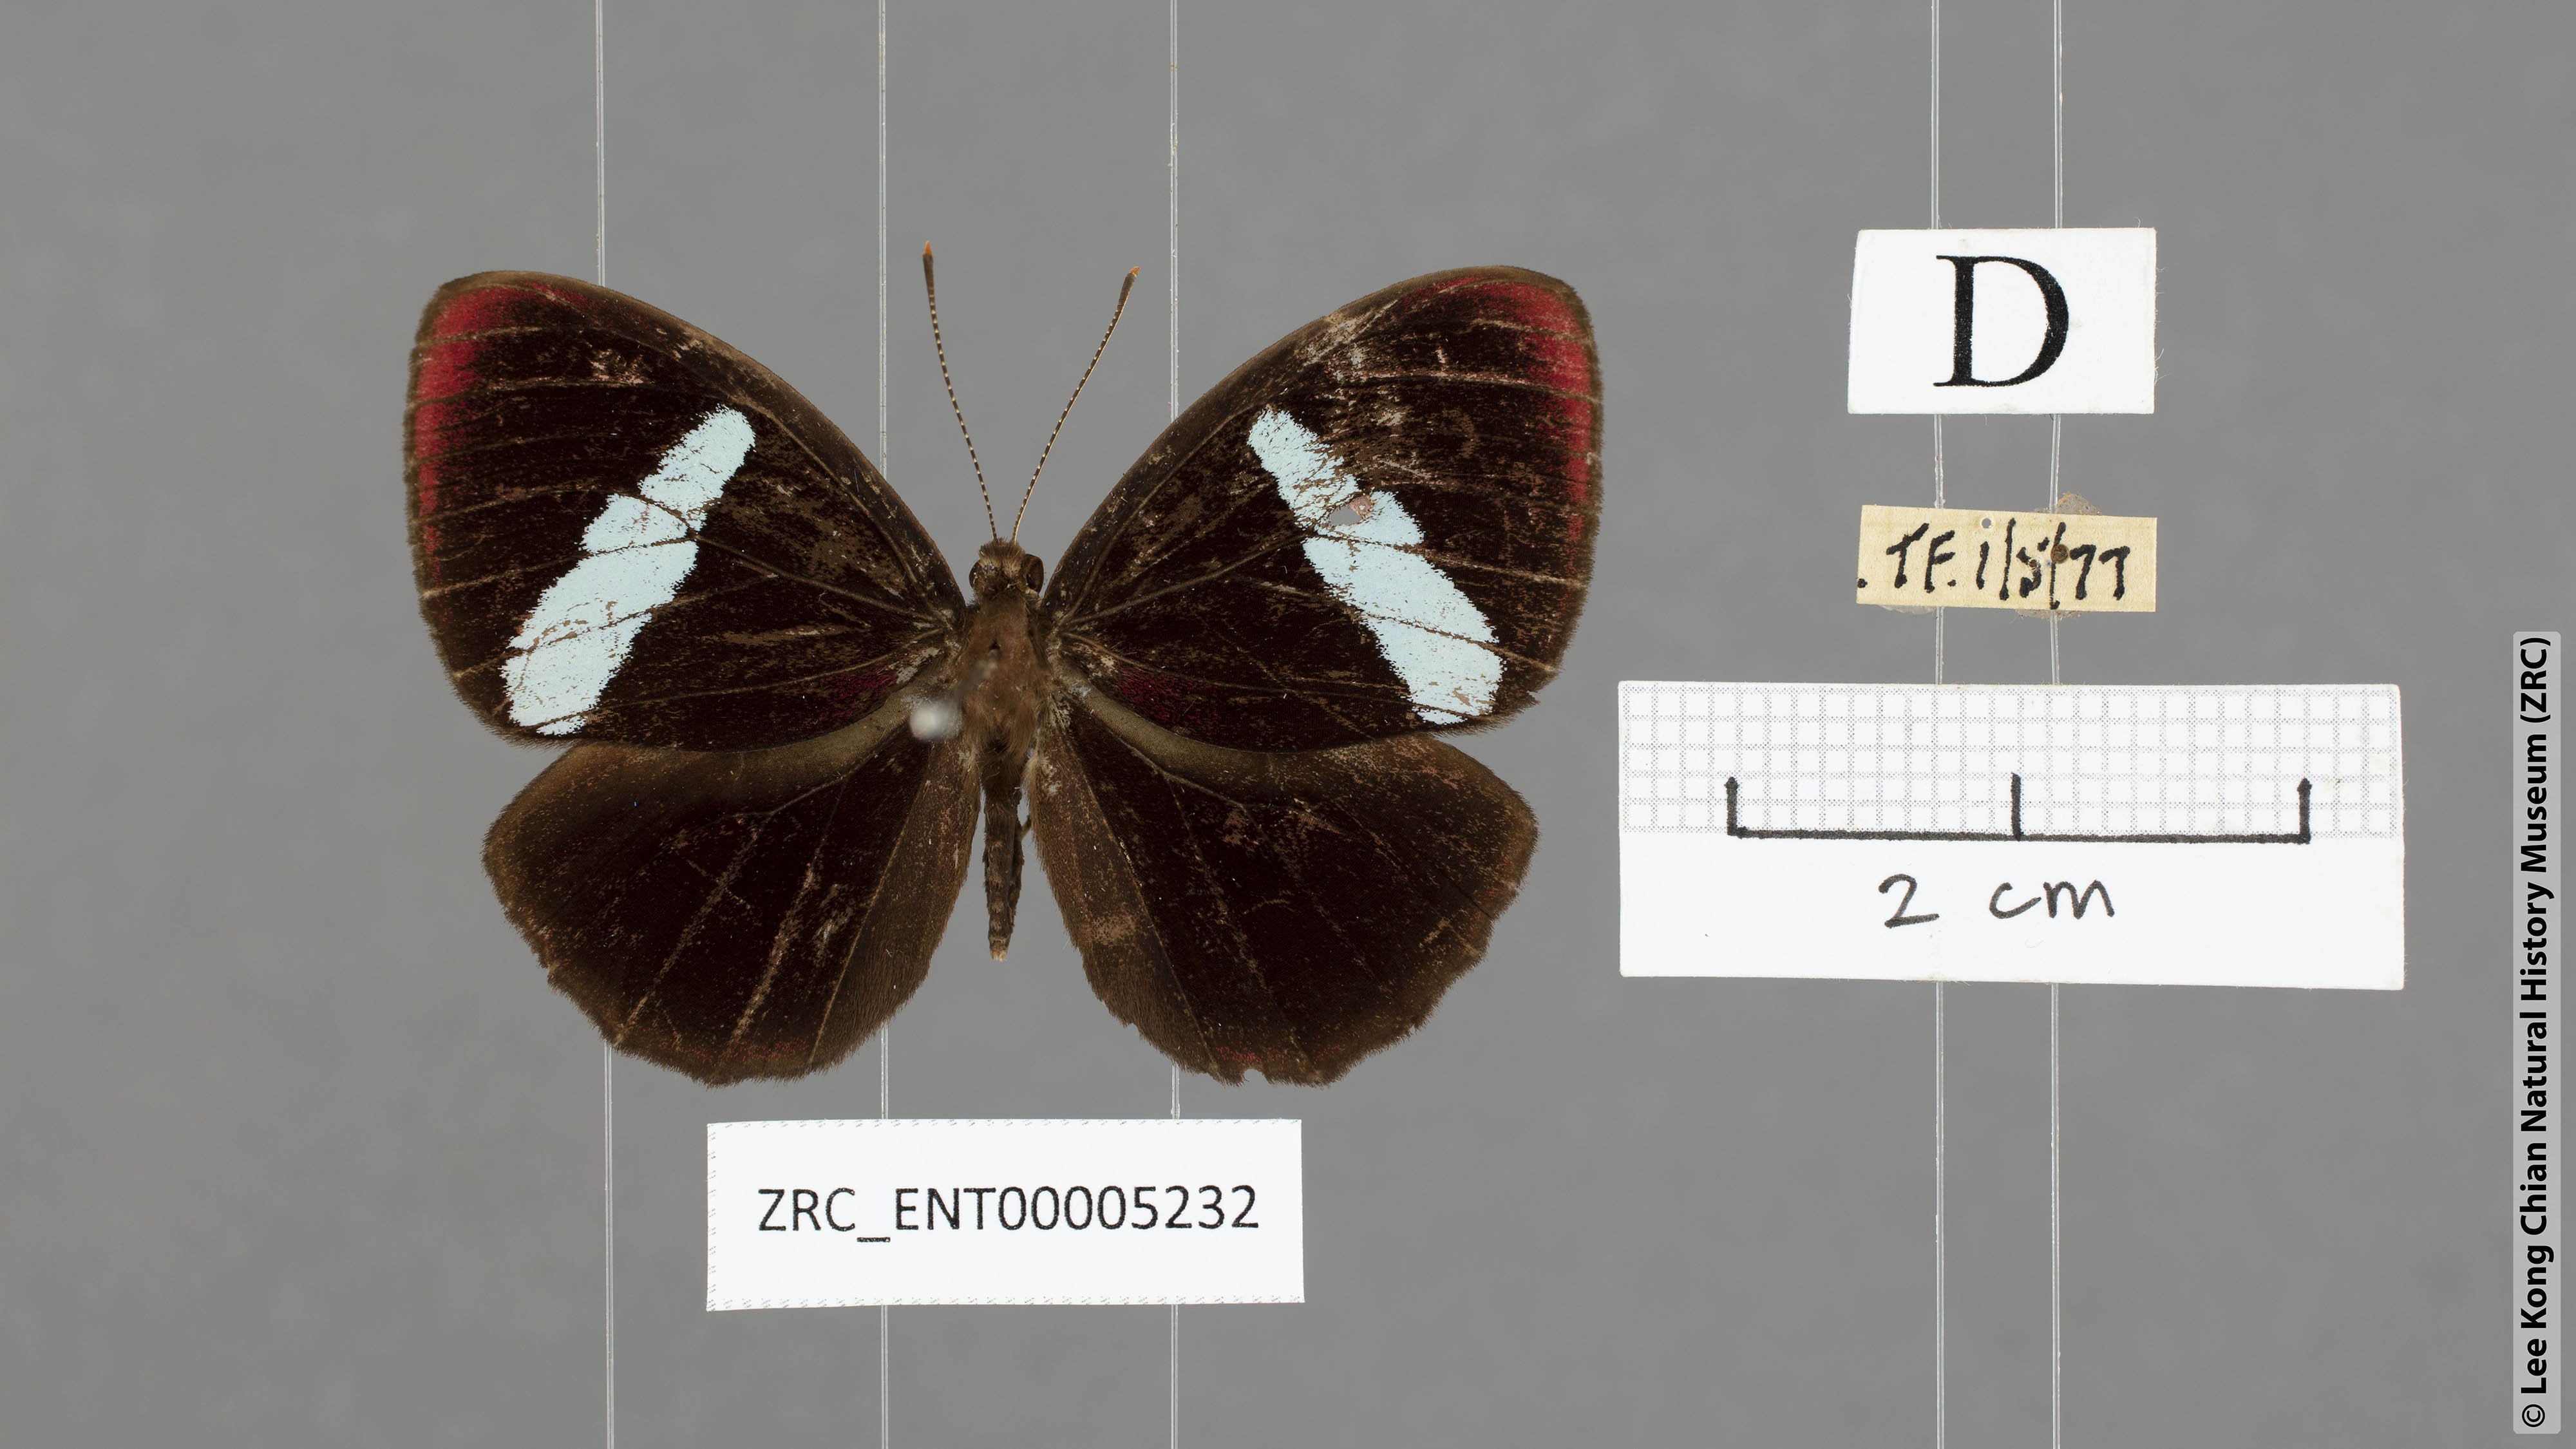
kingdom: Animalia
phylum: Arthropoda
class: Insecta
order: Lepidoptera
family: Riodinidae
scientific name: Riodinidae
